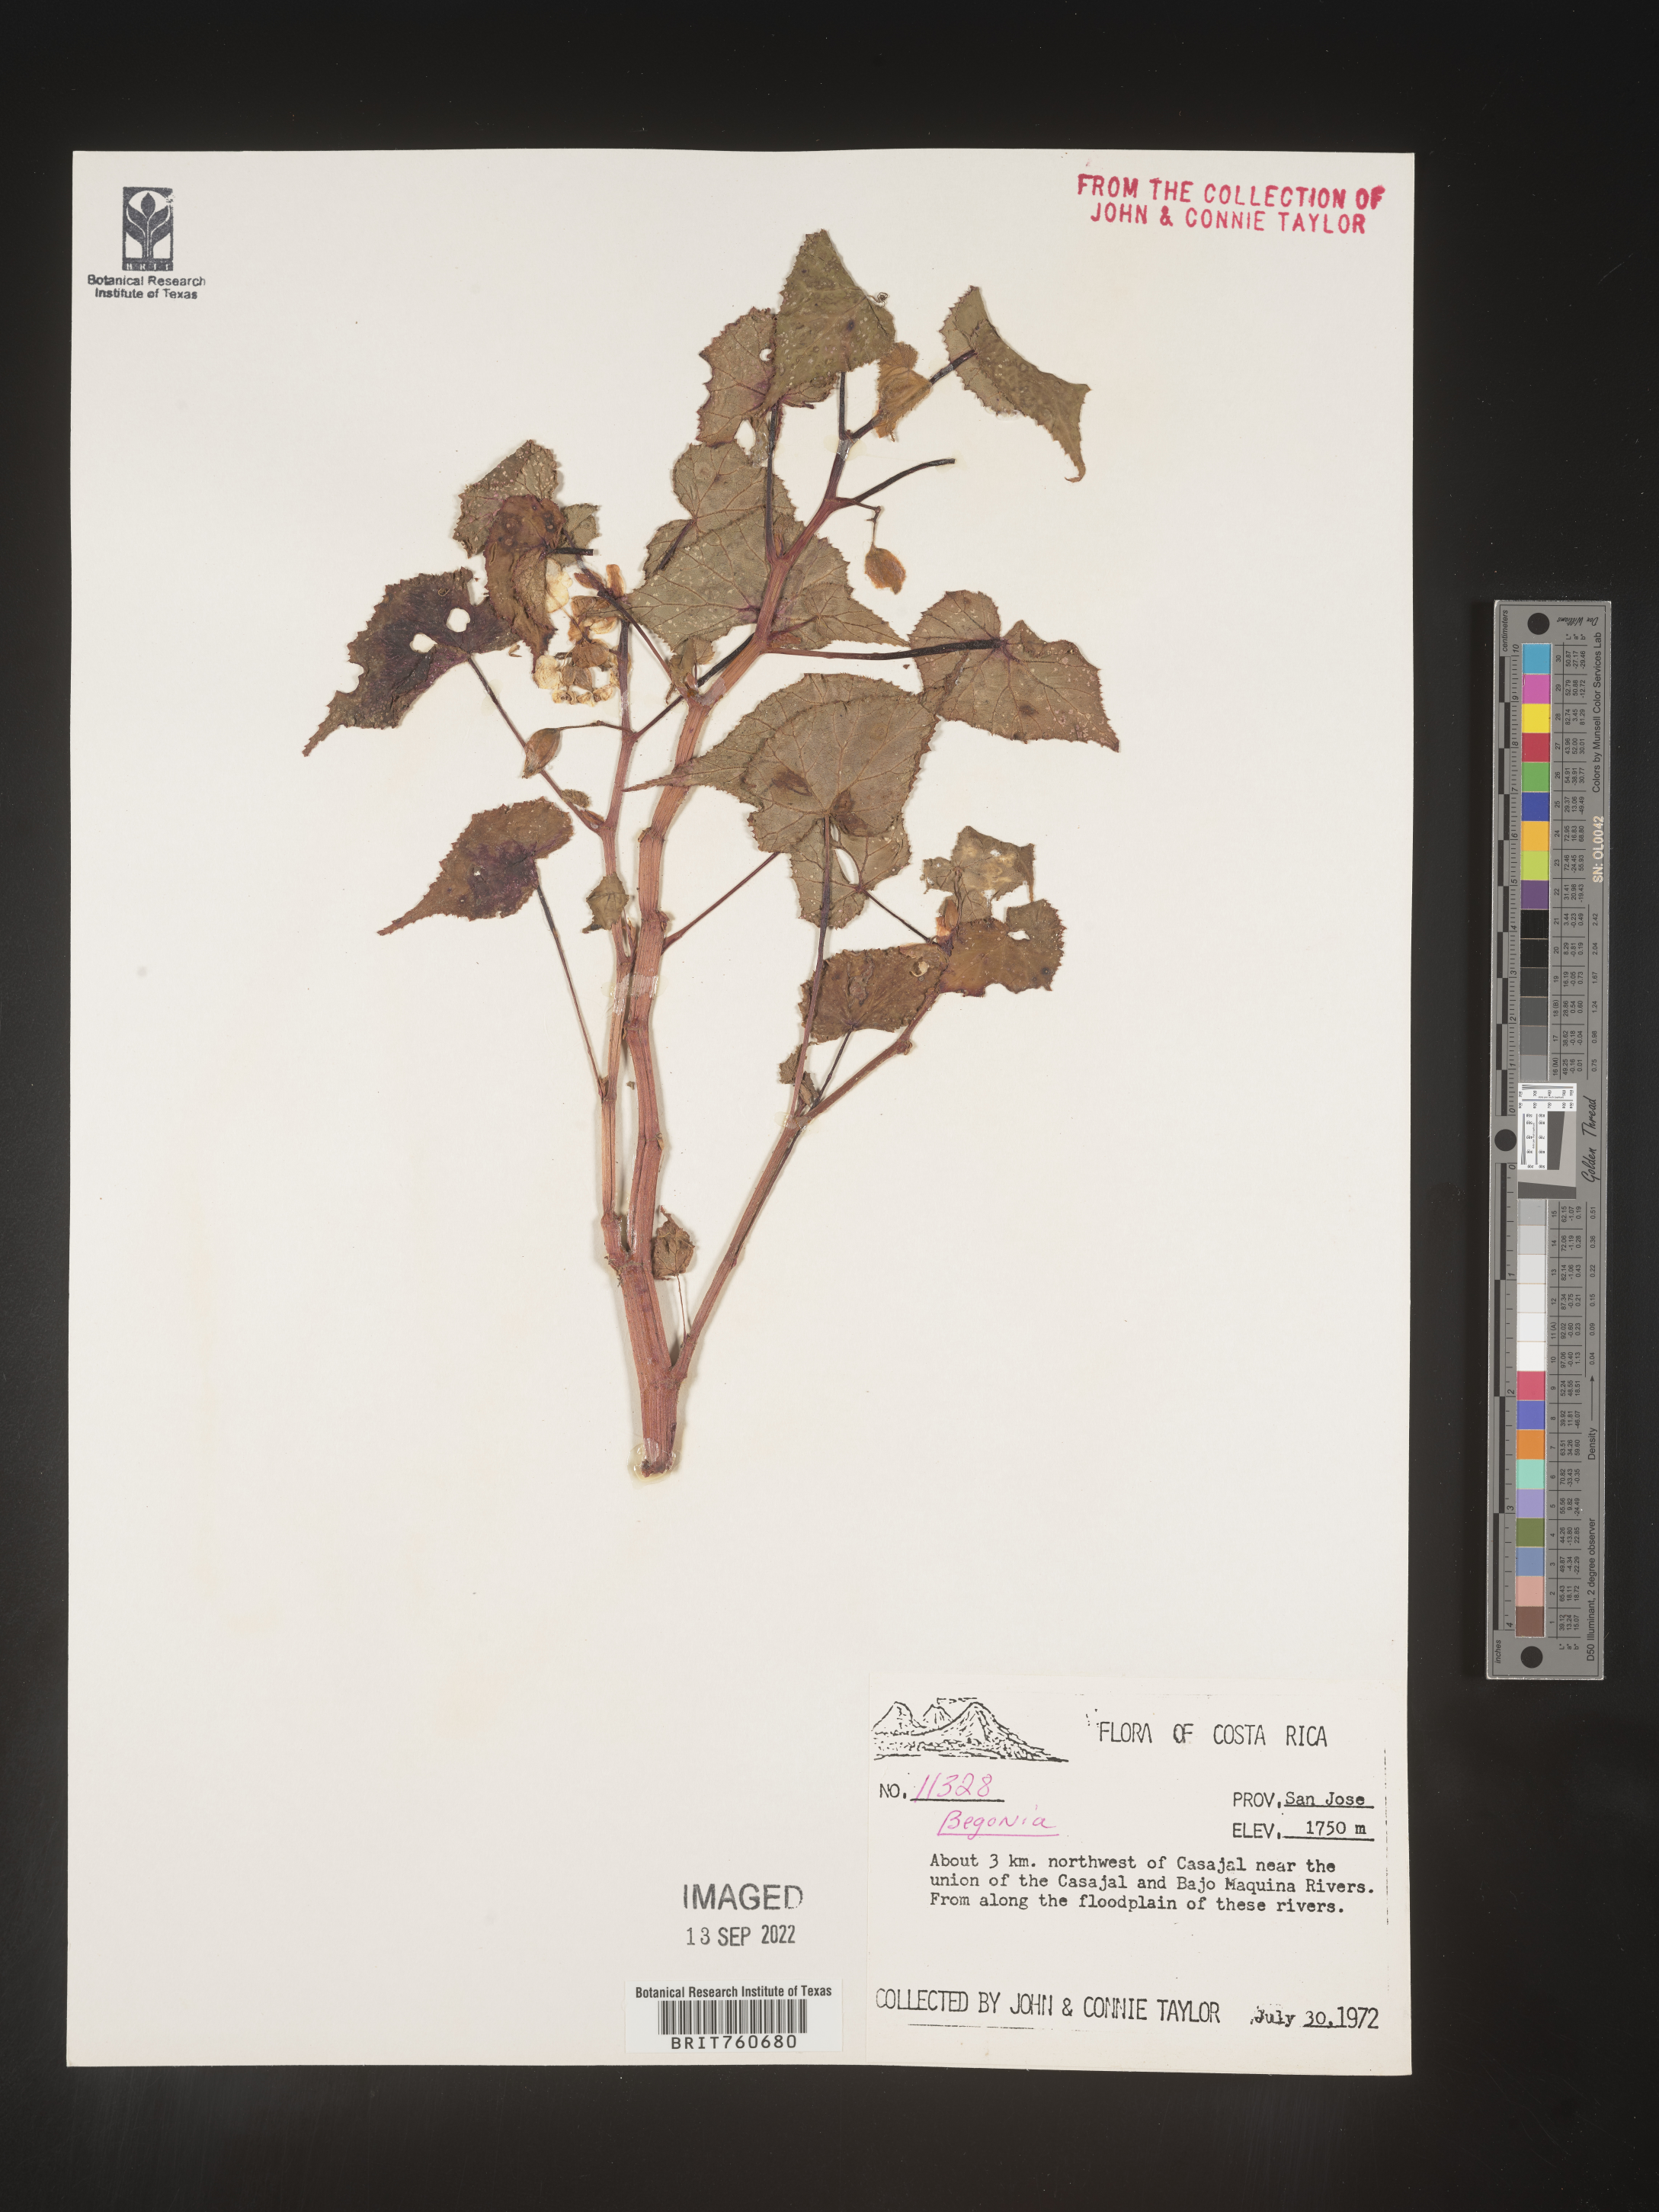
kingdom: Plantae
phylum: Tracheophyta
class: Magnoliopsida
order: Cucurbitales
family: Begoniaceae
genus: Begonia
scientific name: Begonia
